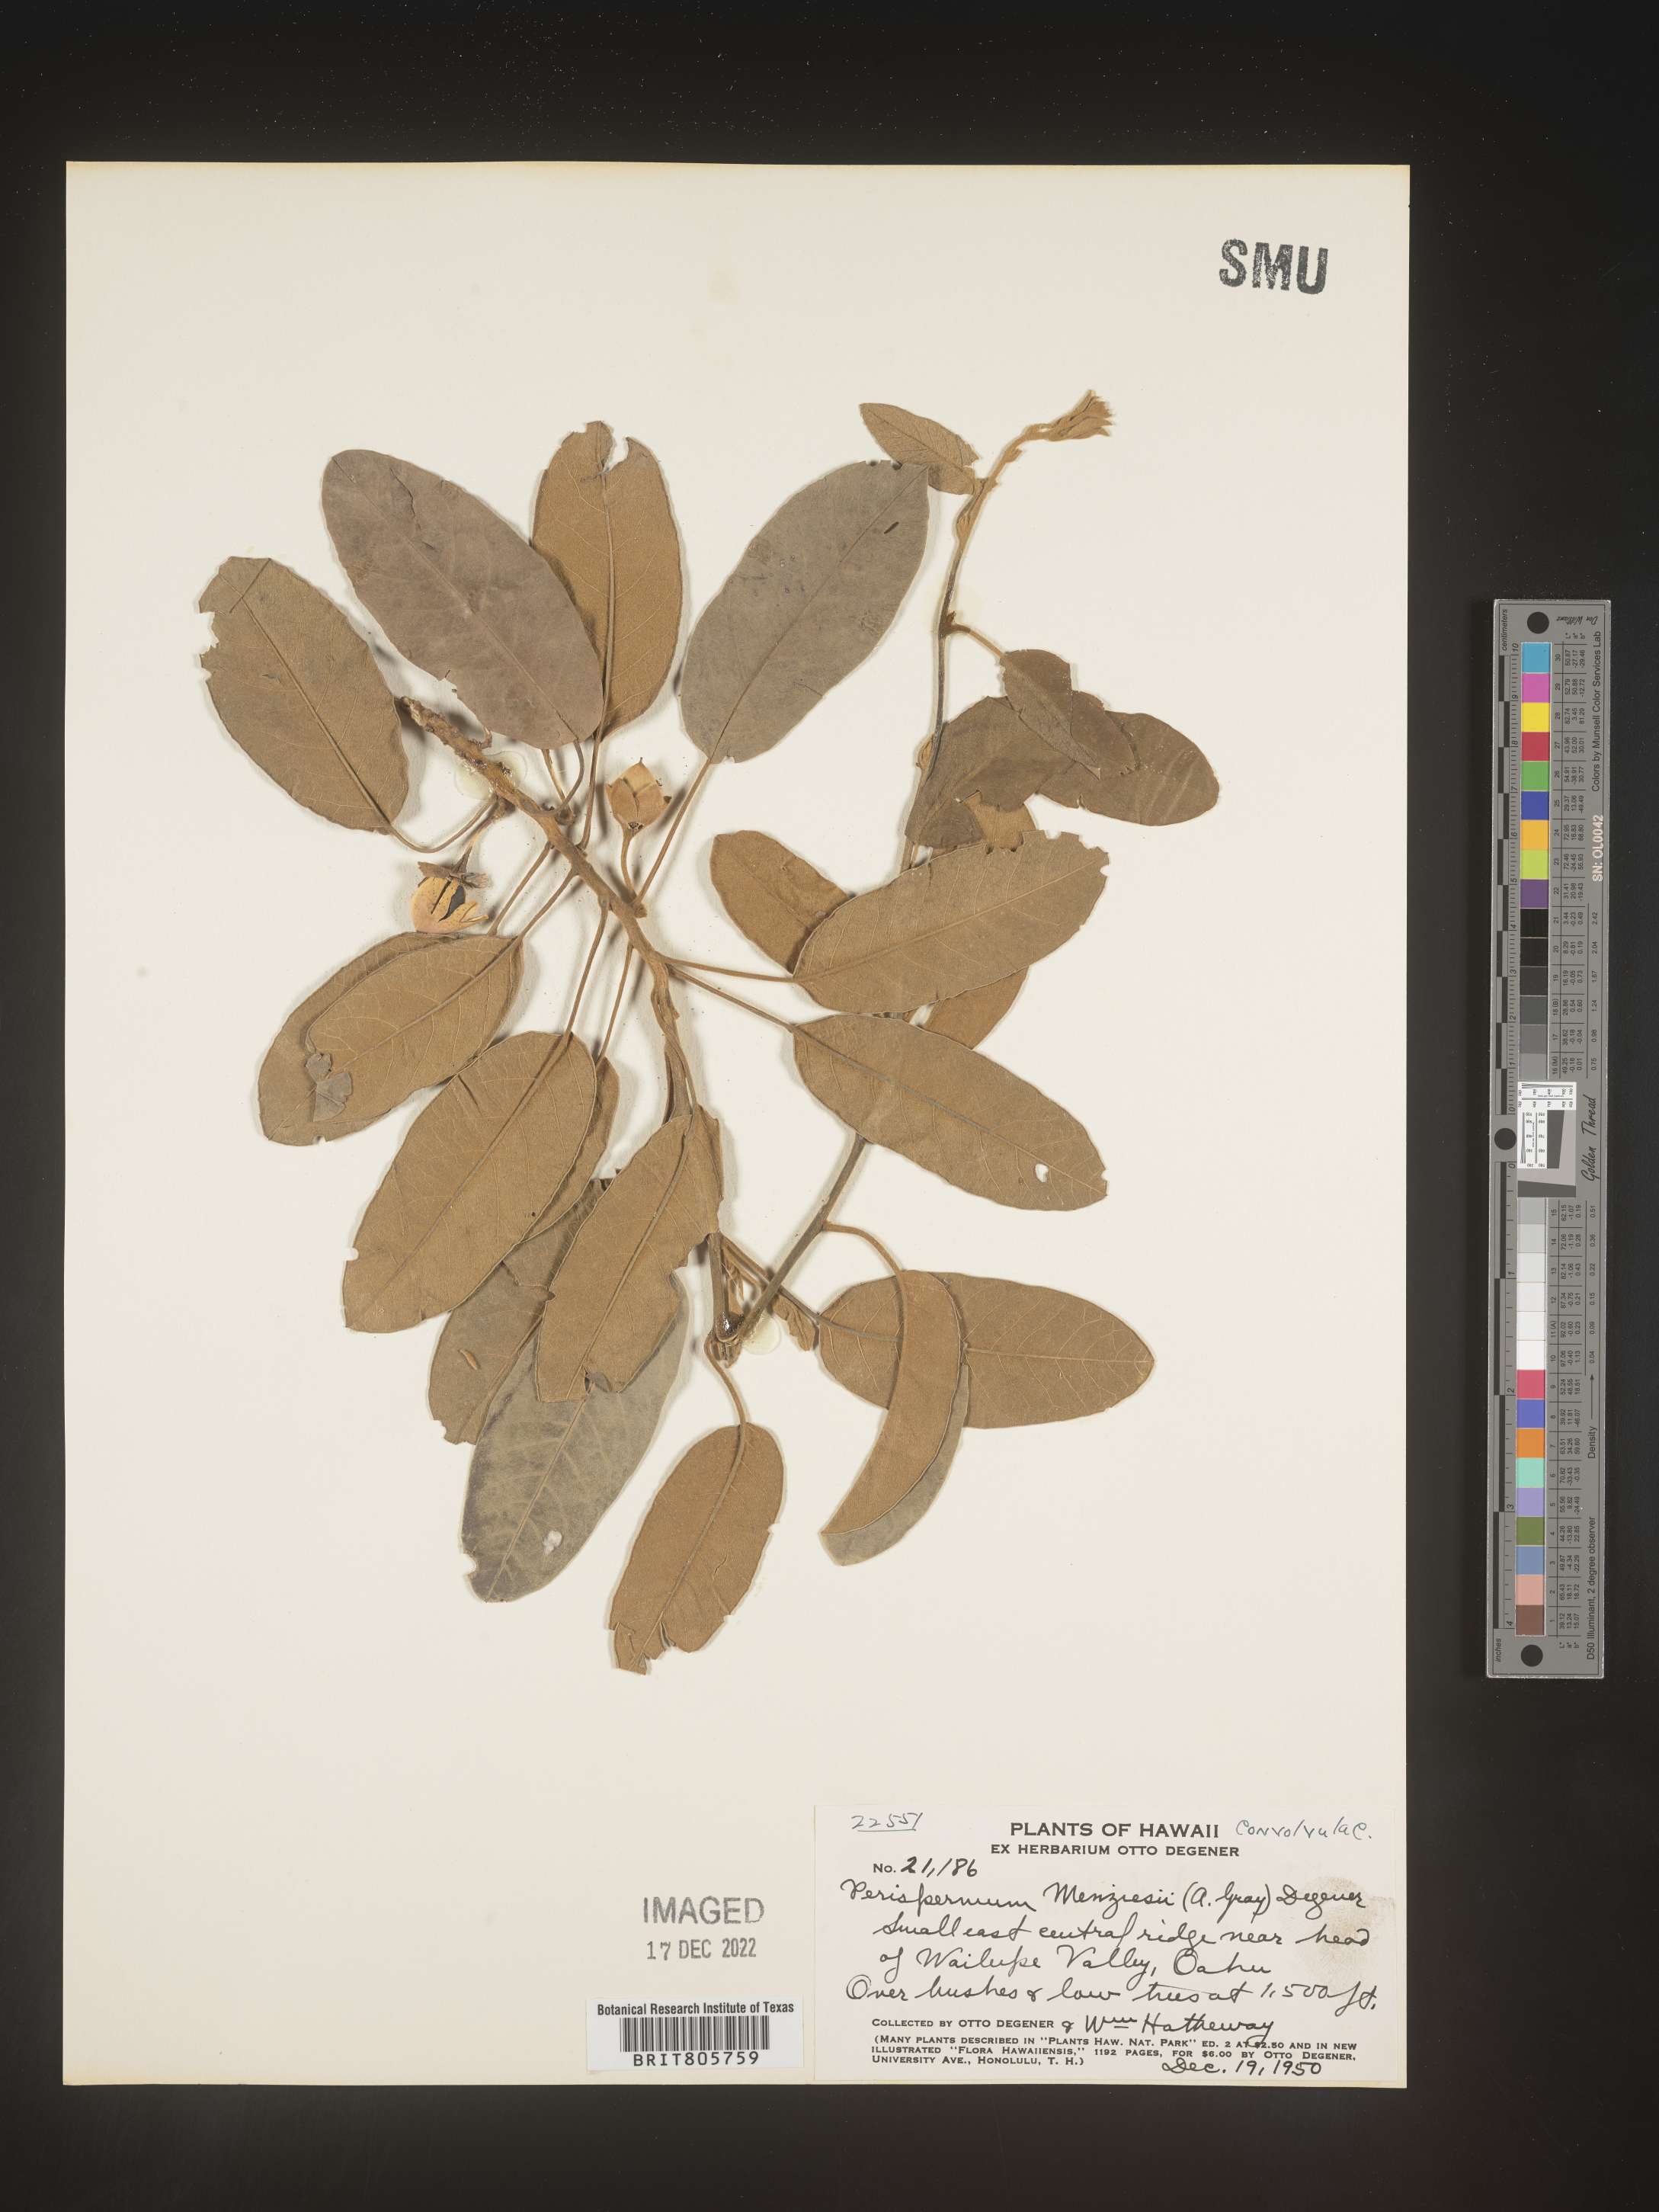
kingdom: Plantae
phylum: Tracheophyta
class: Magnoliopsida
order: Solanales
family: Convolvulaceae
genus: Bonamia
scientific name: Bonamia
